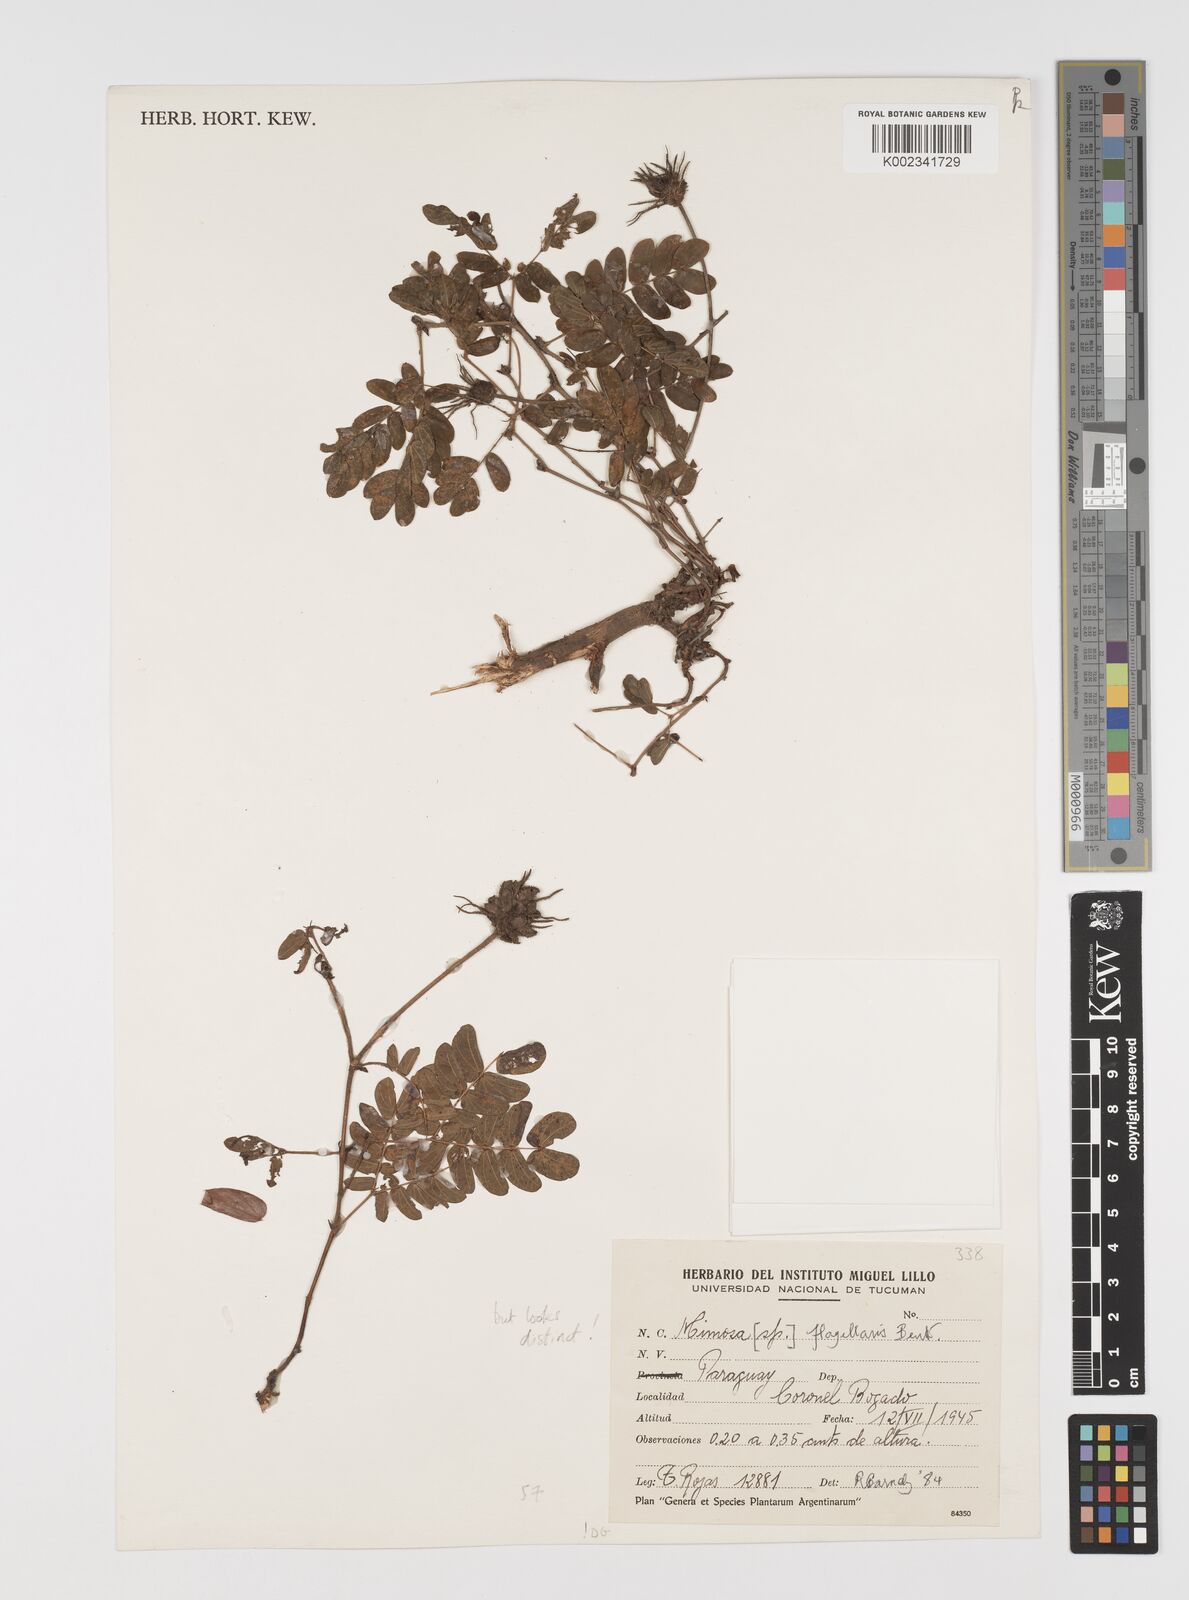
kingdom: Plantae
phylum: Tracheophyta
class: Magnoliopsida
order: Fabales
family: Fabaceae
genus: Mimosa
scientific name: Mimosa flagellaris
